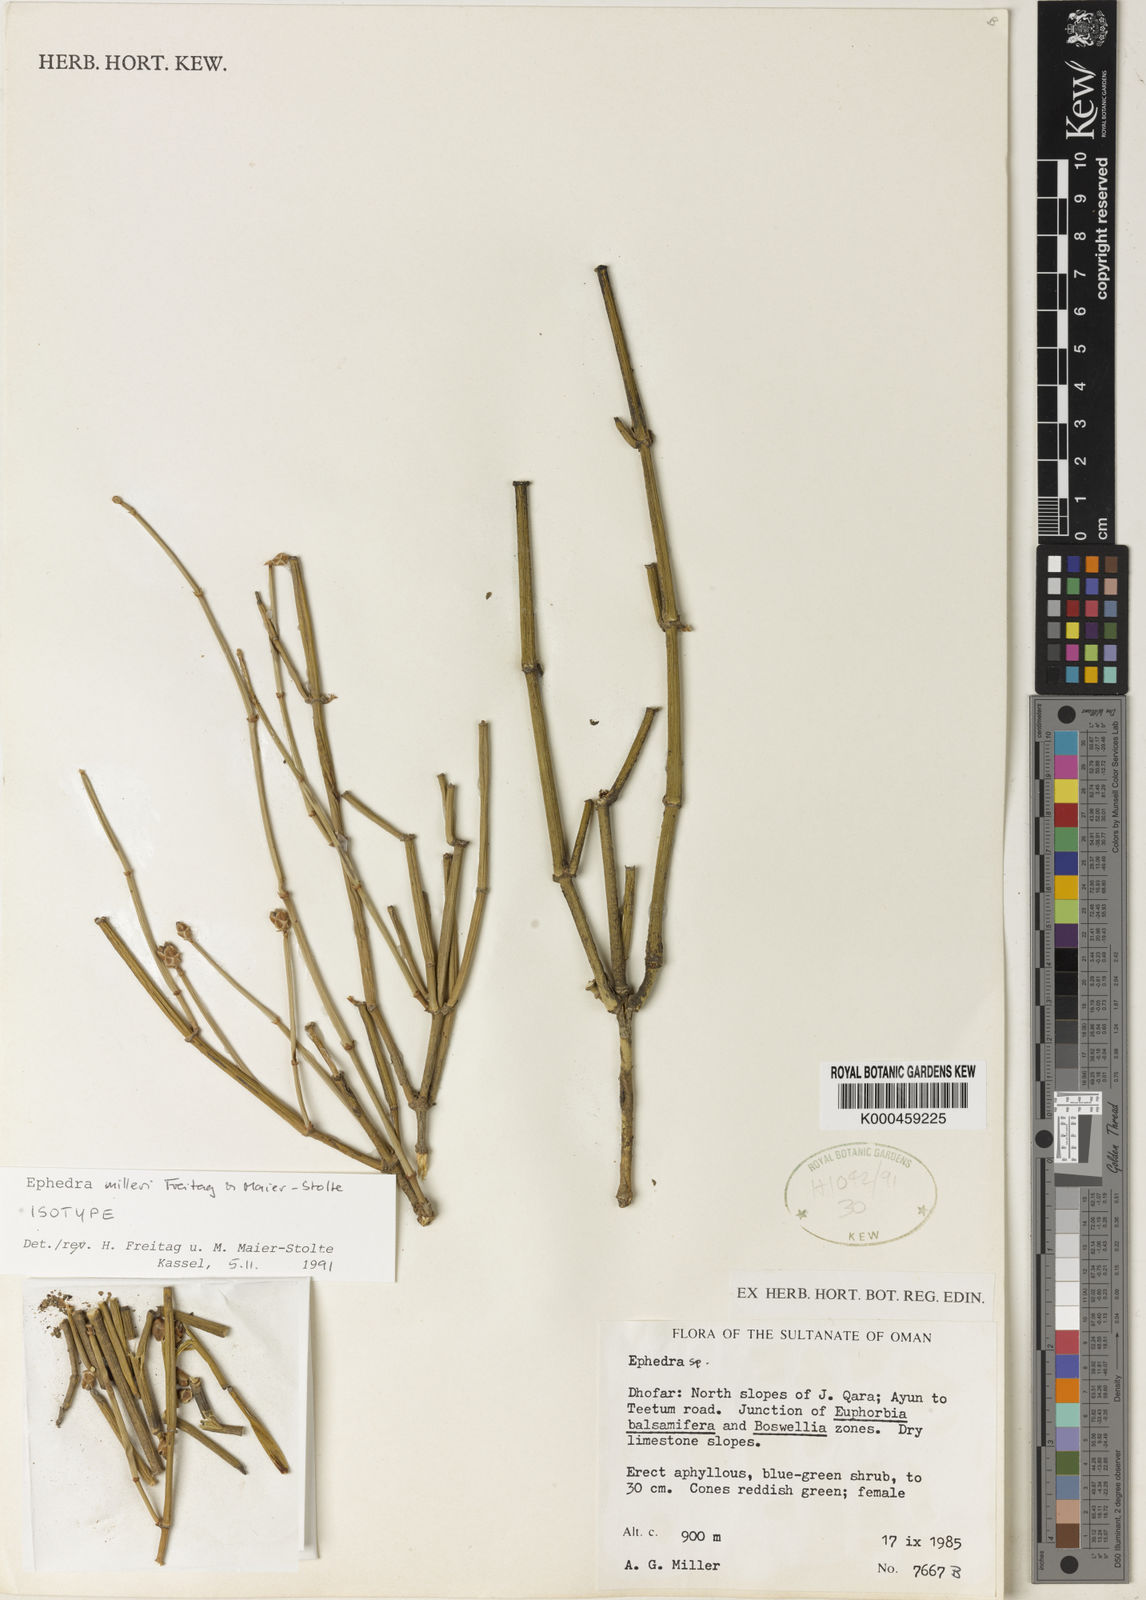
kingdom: Plantae
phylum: Tracheophyta
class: Gnetopsida
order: Ephedrales
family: Ephedraceae
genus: Ephedra
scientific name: Ephedra milleri
